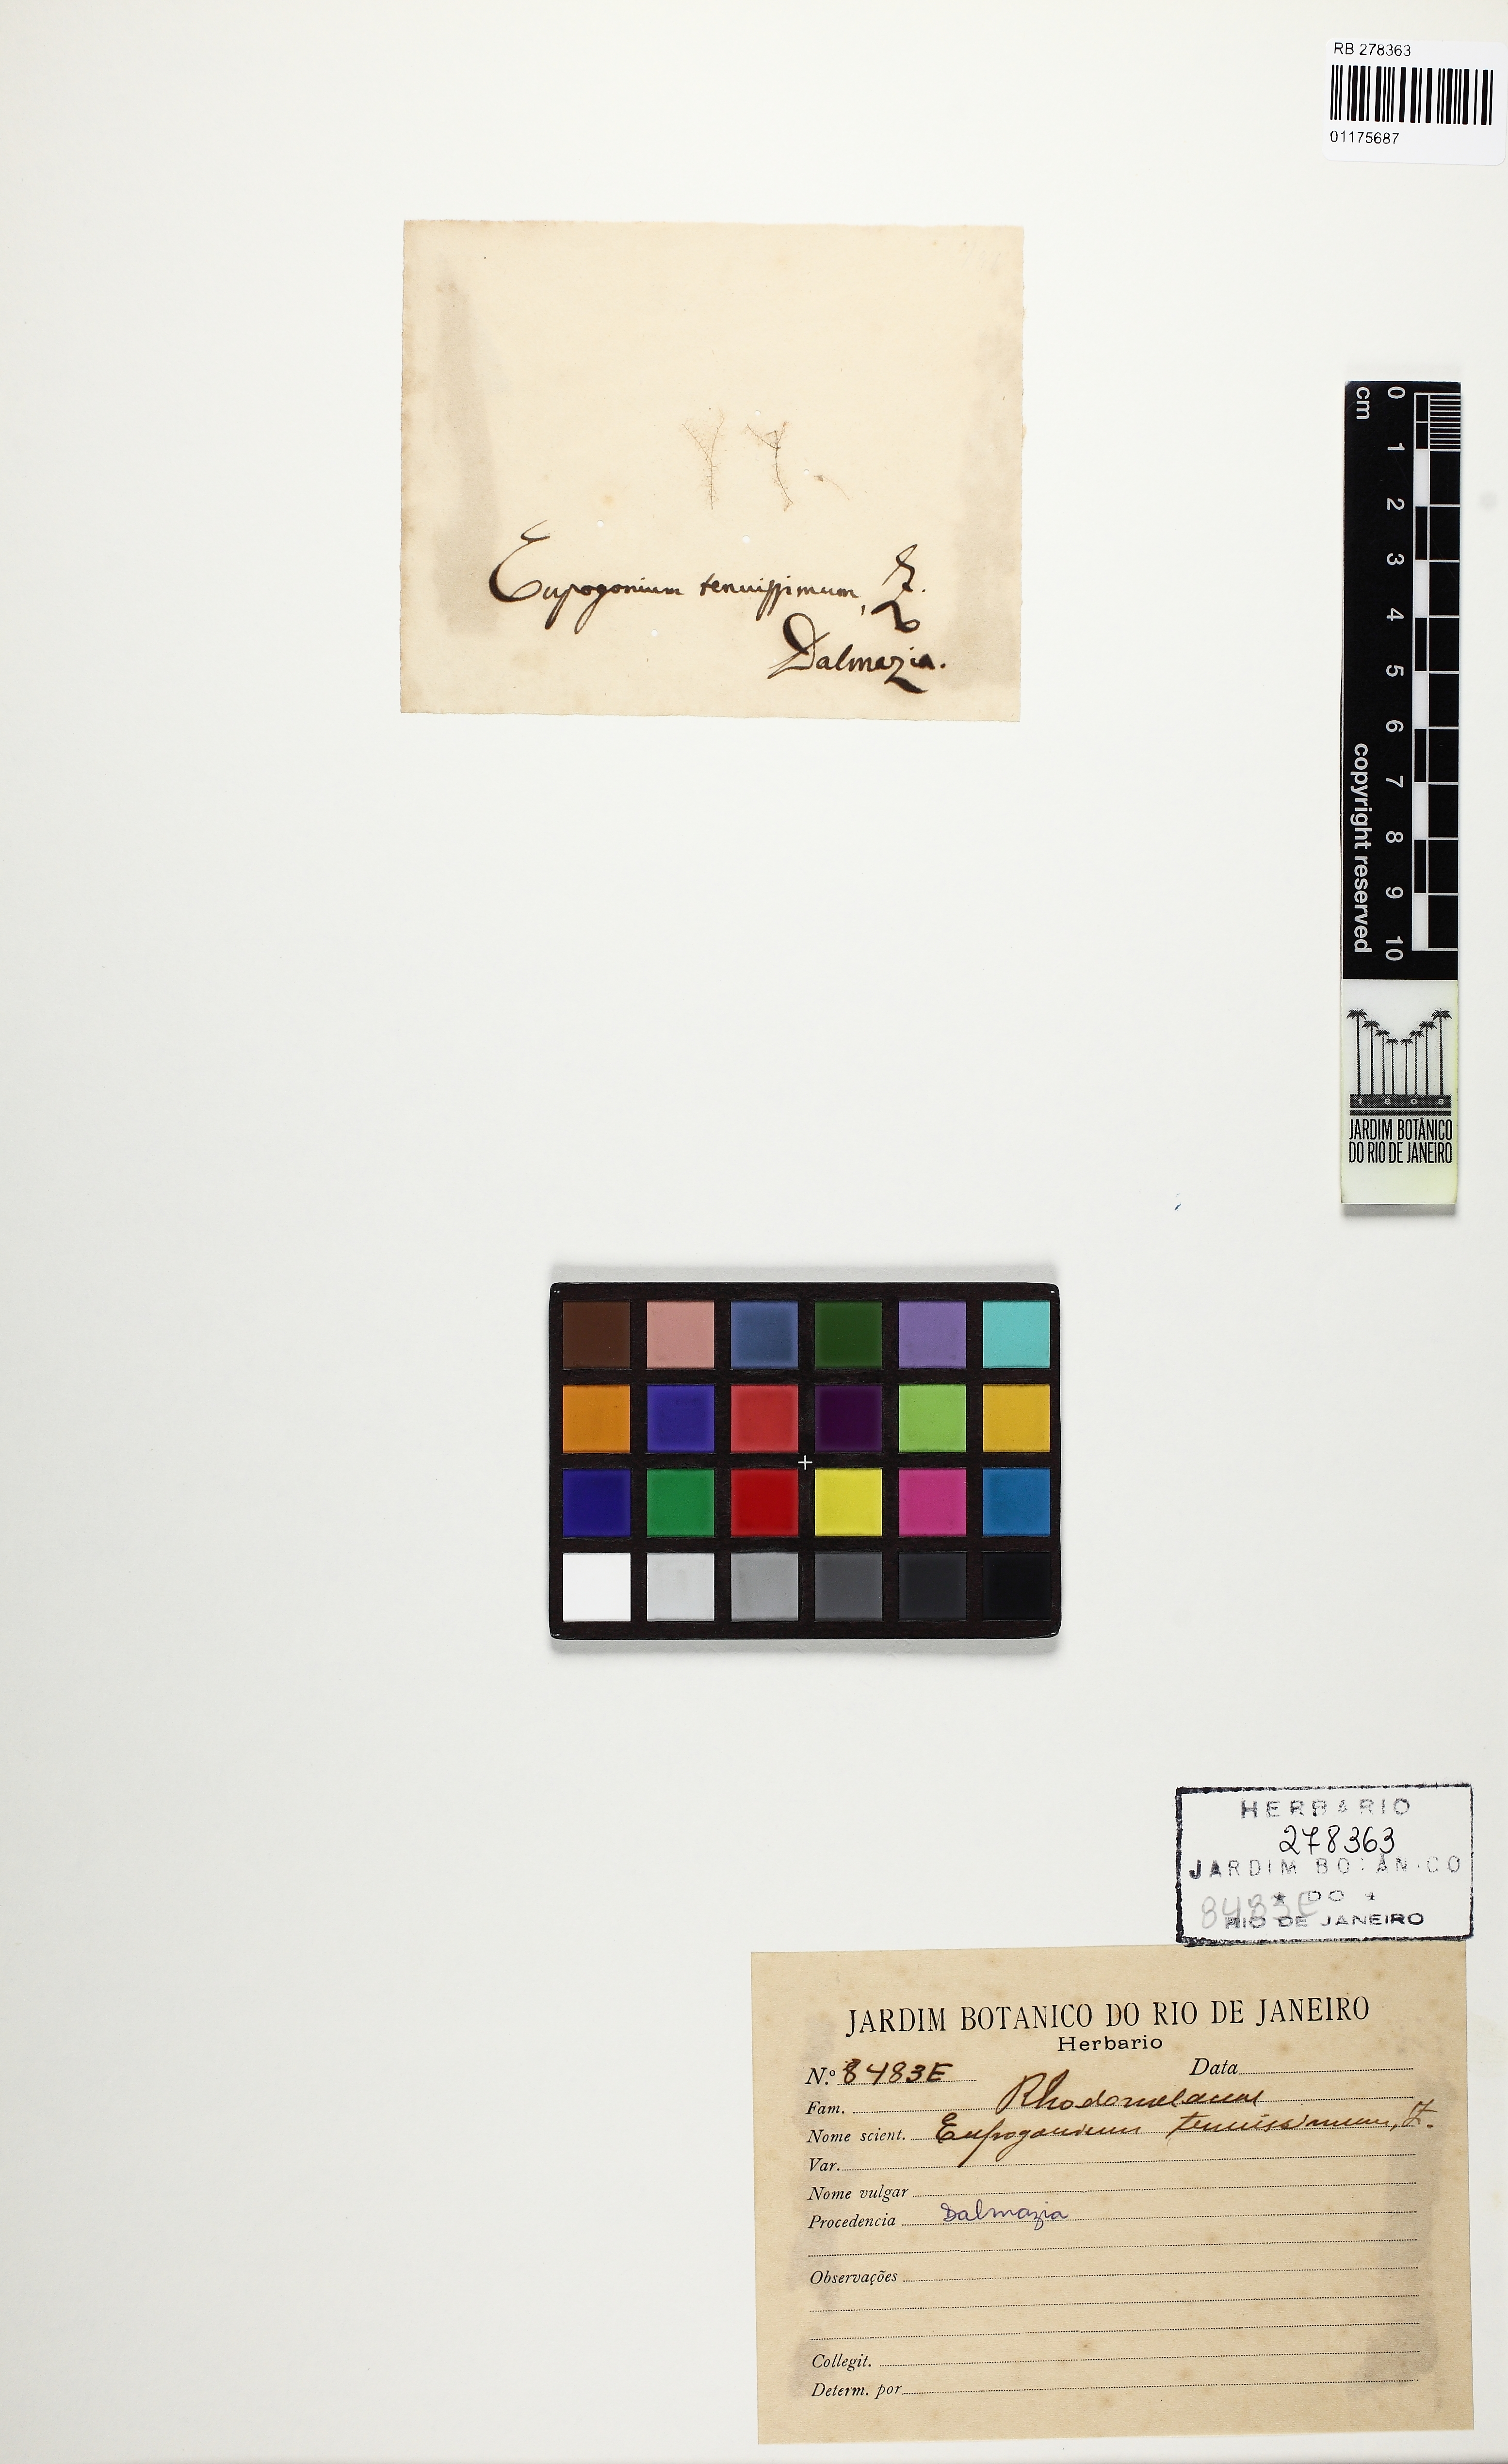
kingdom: Plantae
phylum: Rhodophyta
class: Florideophyceae
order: Ceramiales
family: Dasyaceae
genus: Dasya
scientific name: Dasya
